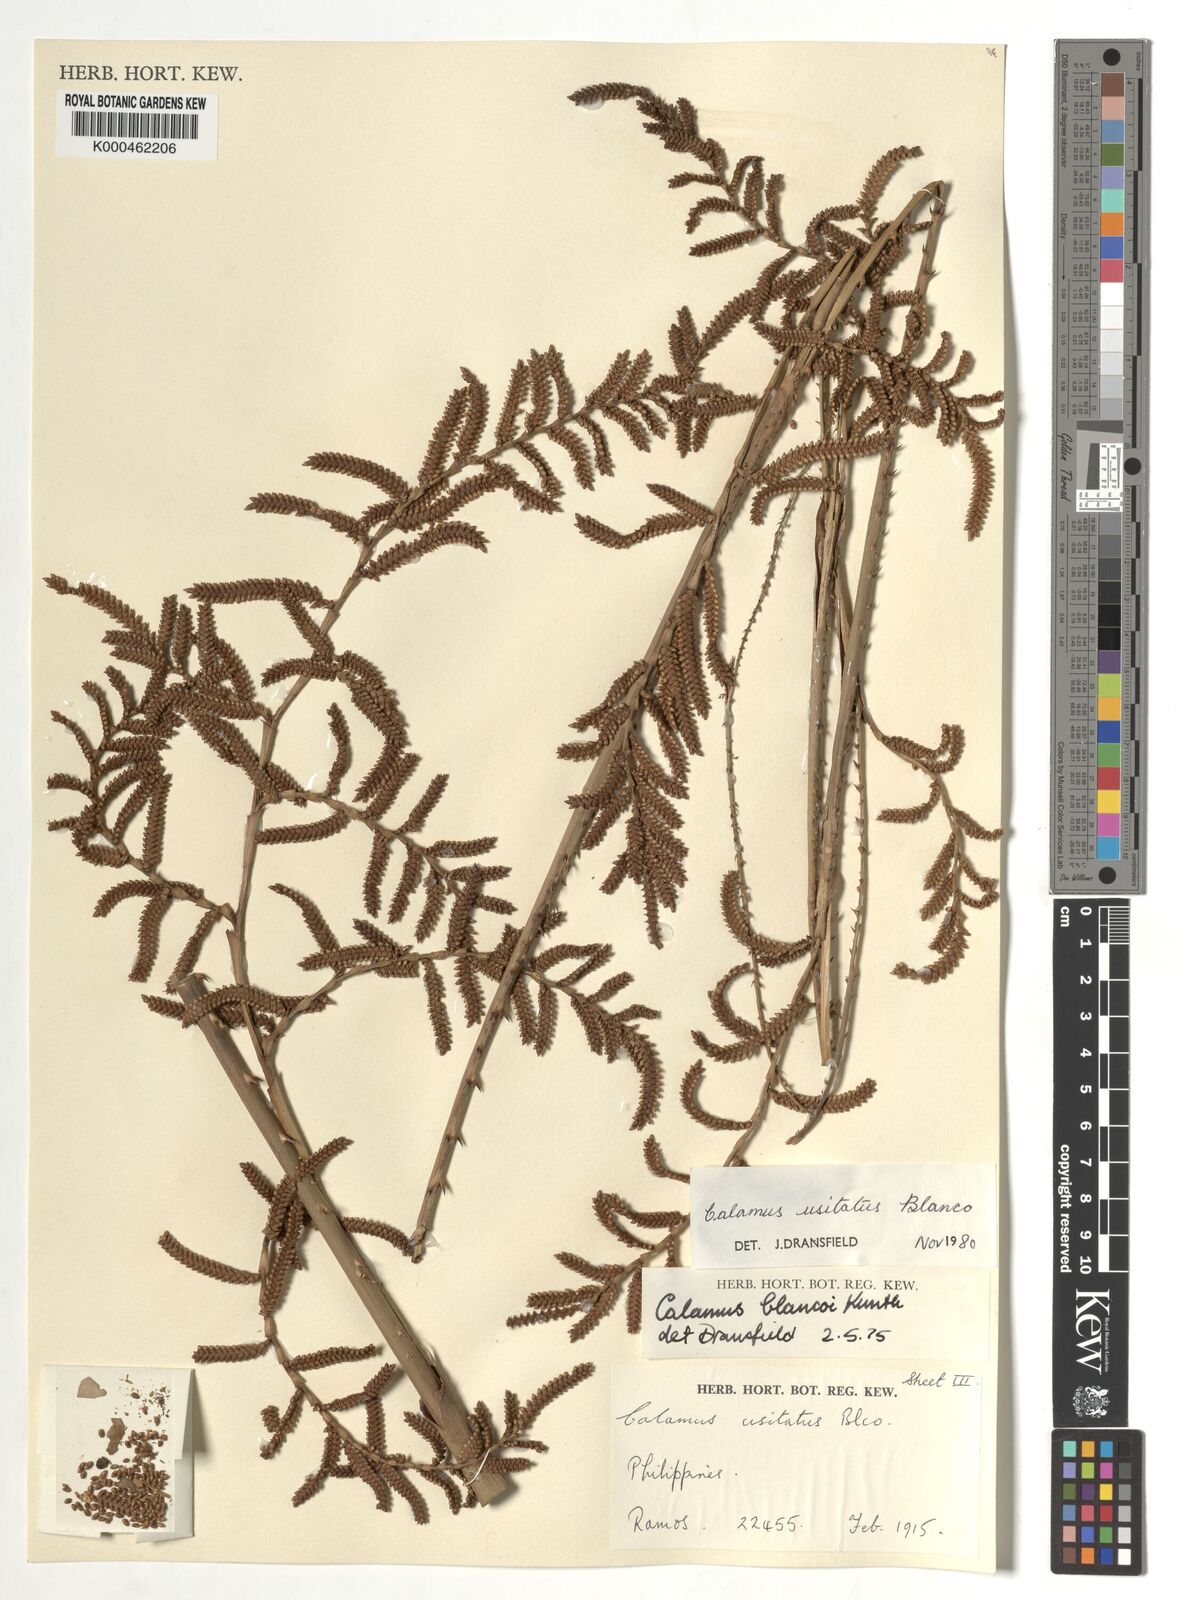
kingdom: Plantae
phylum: Tracheophyta
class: Liliopsida
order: Arecales
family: Arecaceae
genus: Calamus
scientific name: Calamus usitatus
